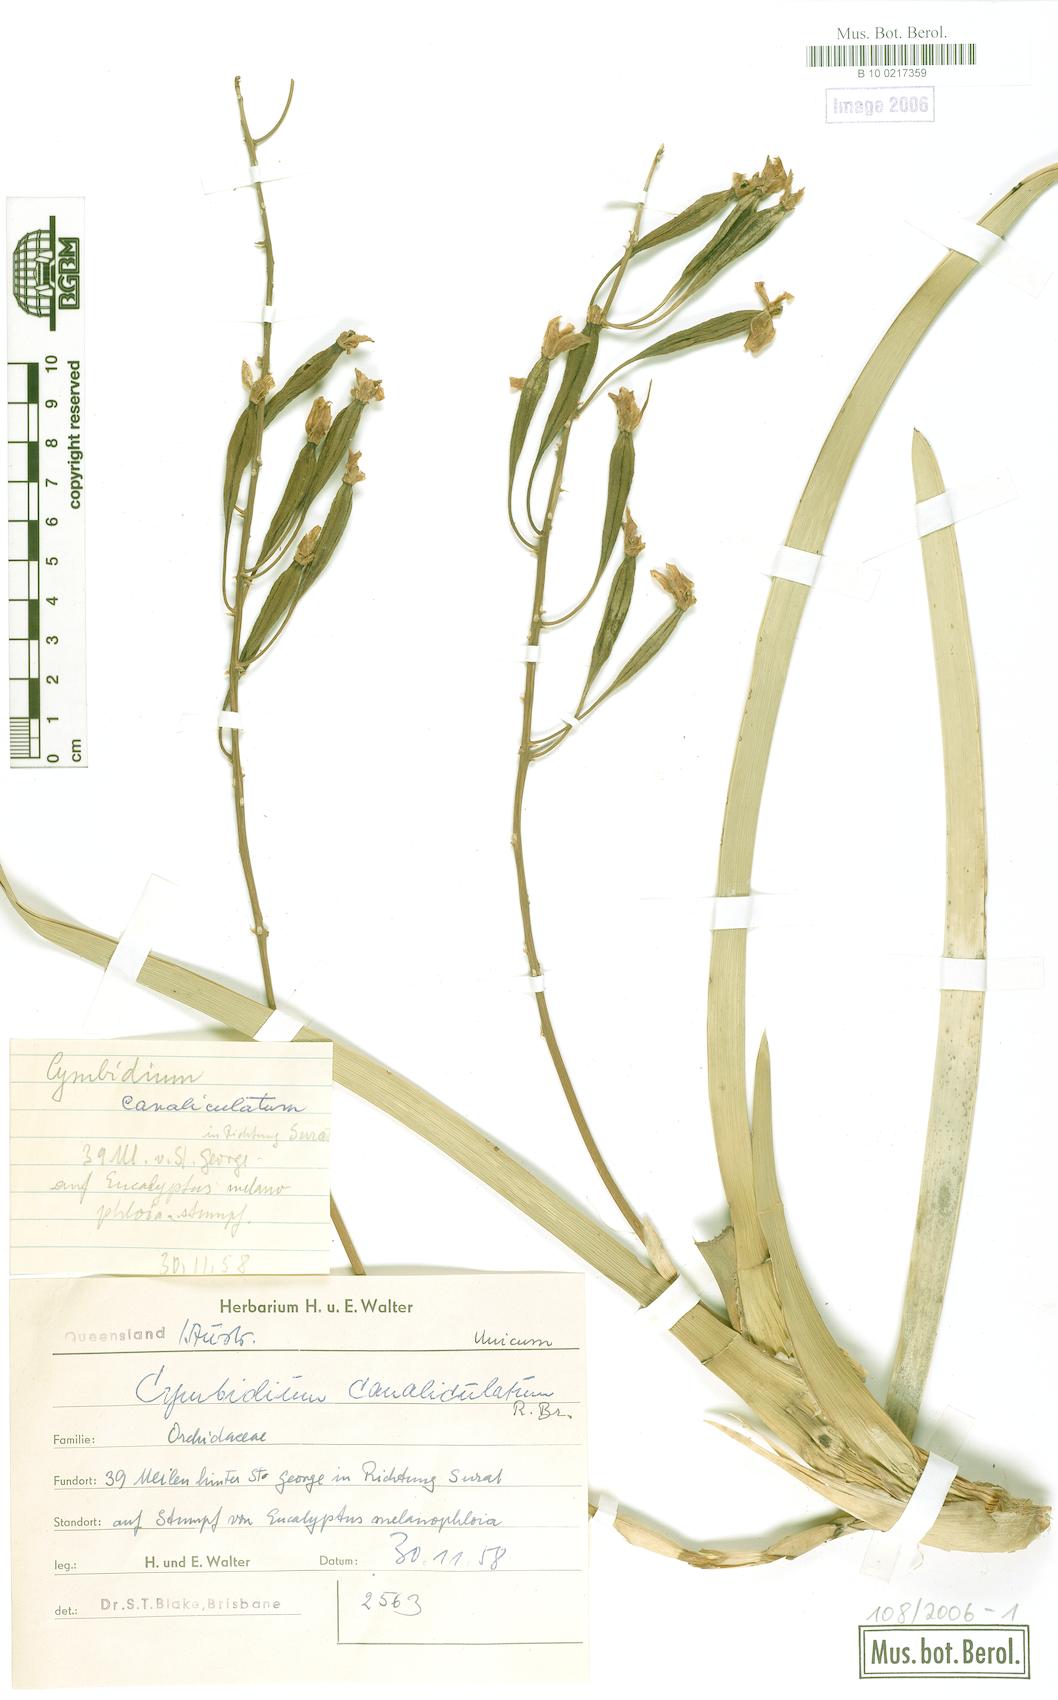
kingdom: Plantae
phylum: Tracheophyta
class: Liliopsida
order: Asparagales
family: Orchidaceae
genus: Cymbidium
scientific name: Cymbidium canaliculatum
